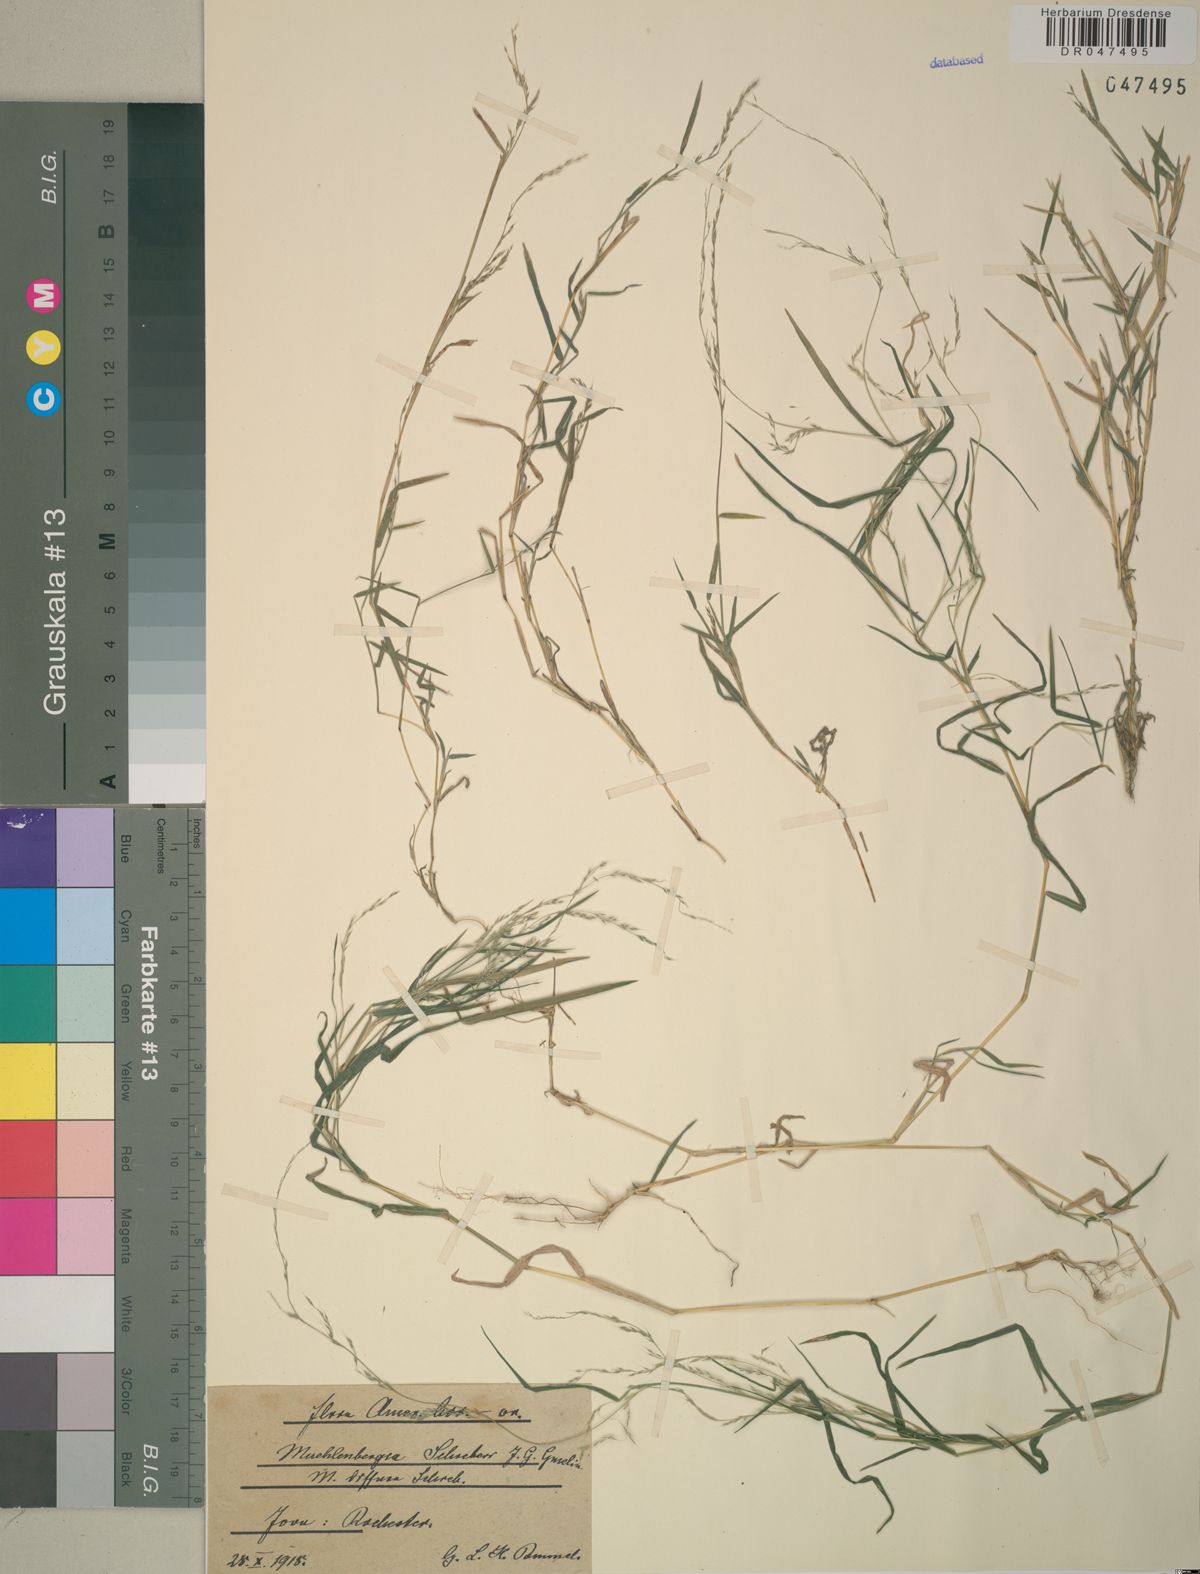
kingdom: Plantae
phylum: Tracheophyta
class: Liliopsida
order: Poales
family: Poaceae
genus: Muhlenbergia
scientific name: Muhlenbergia schreberi
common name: Nimblewill
